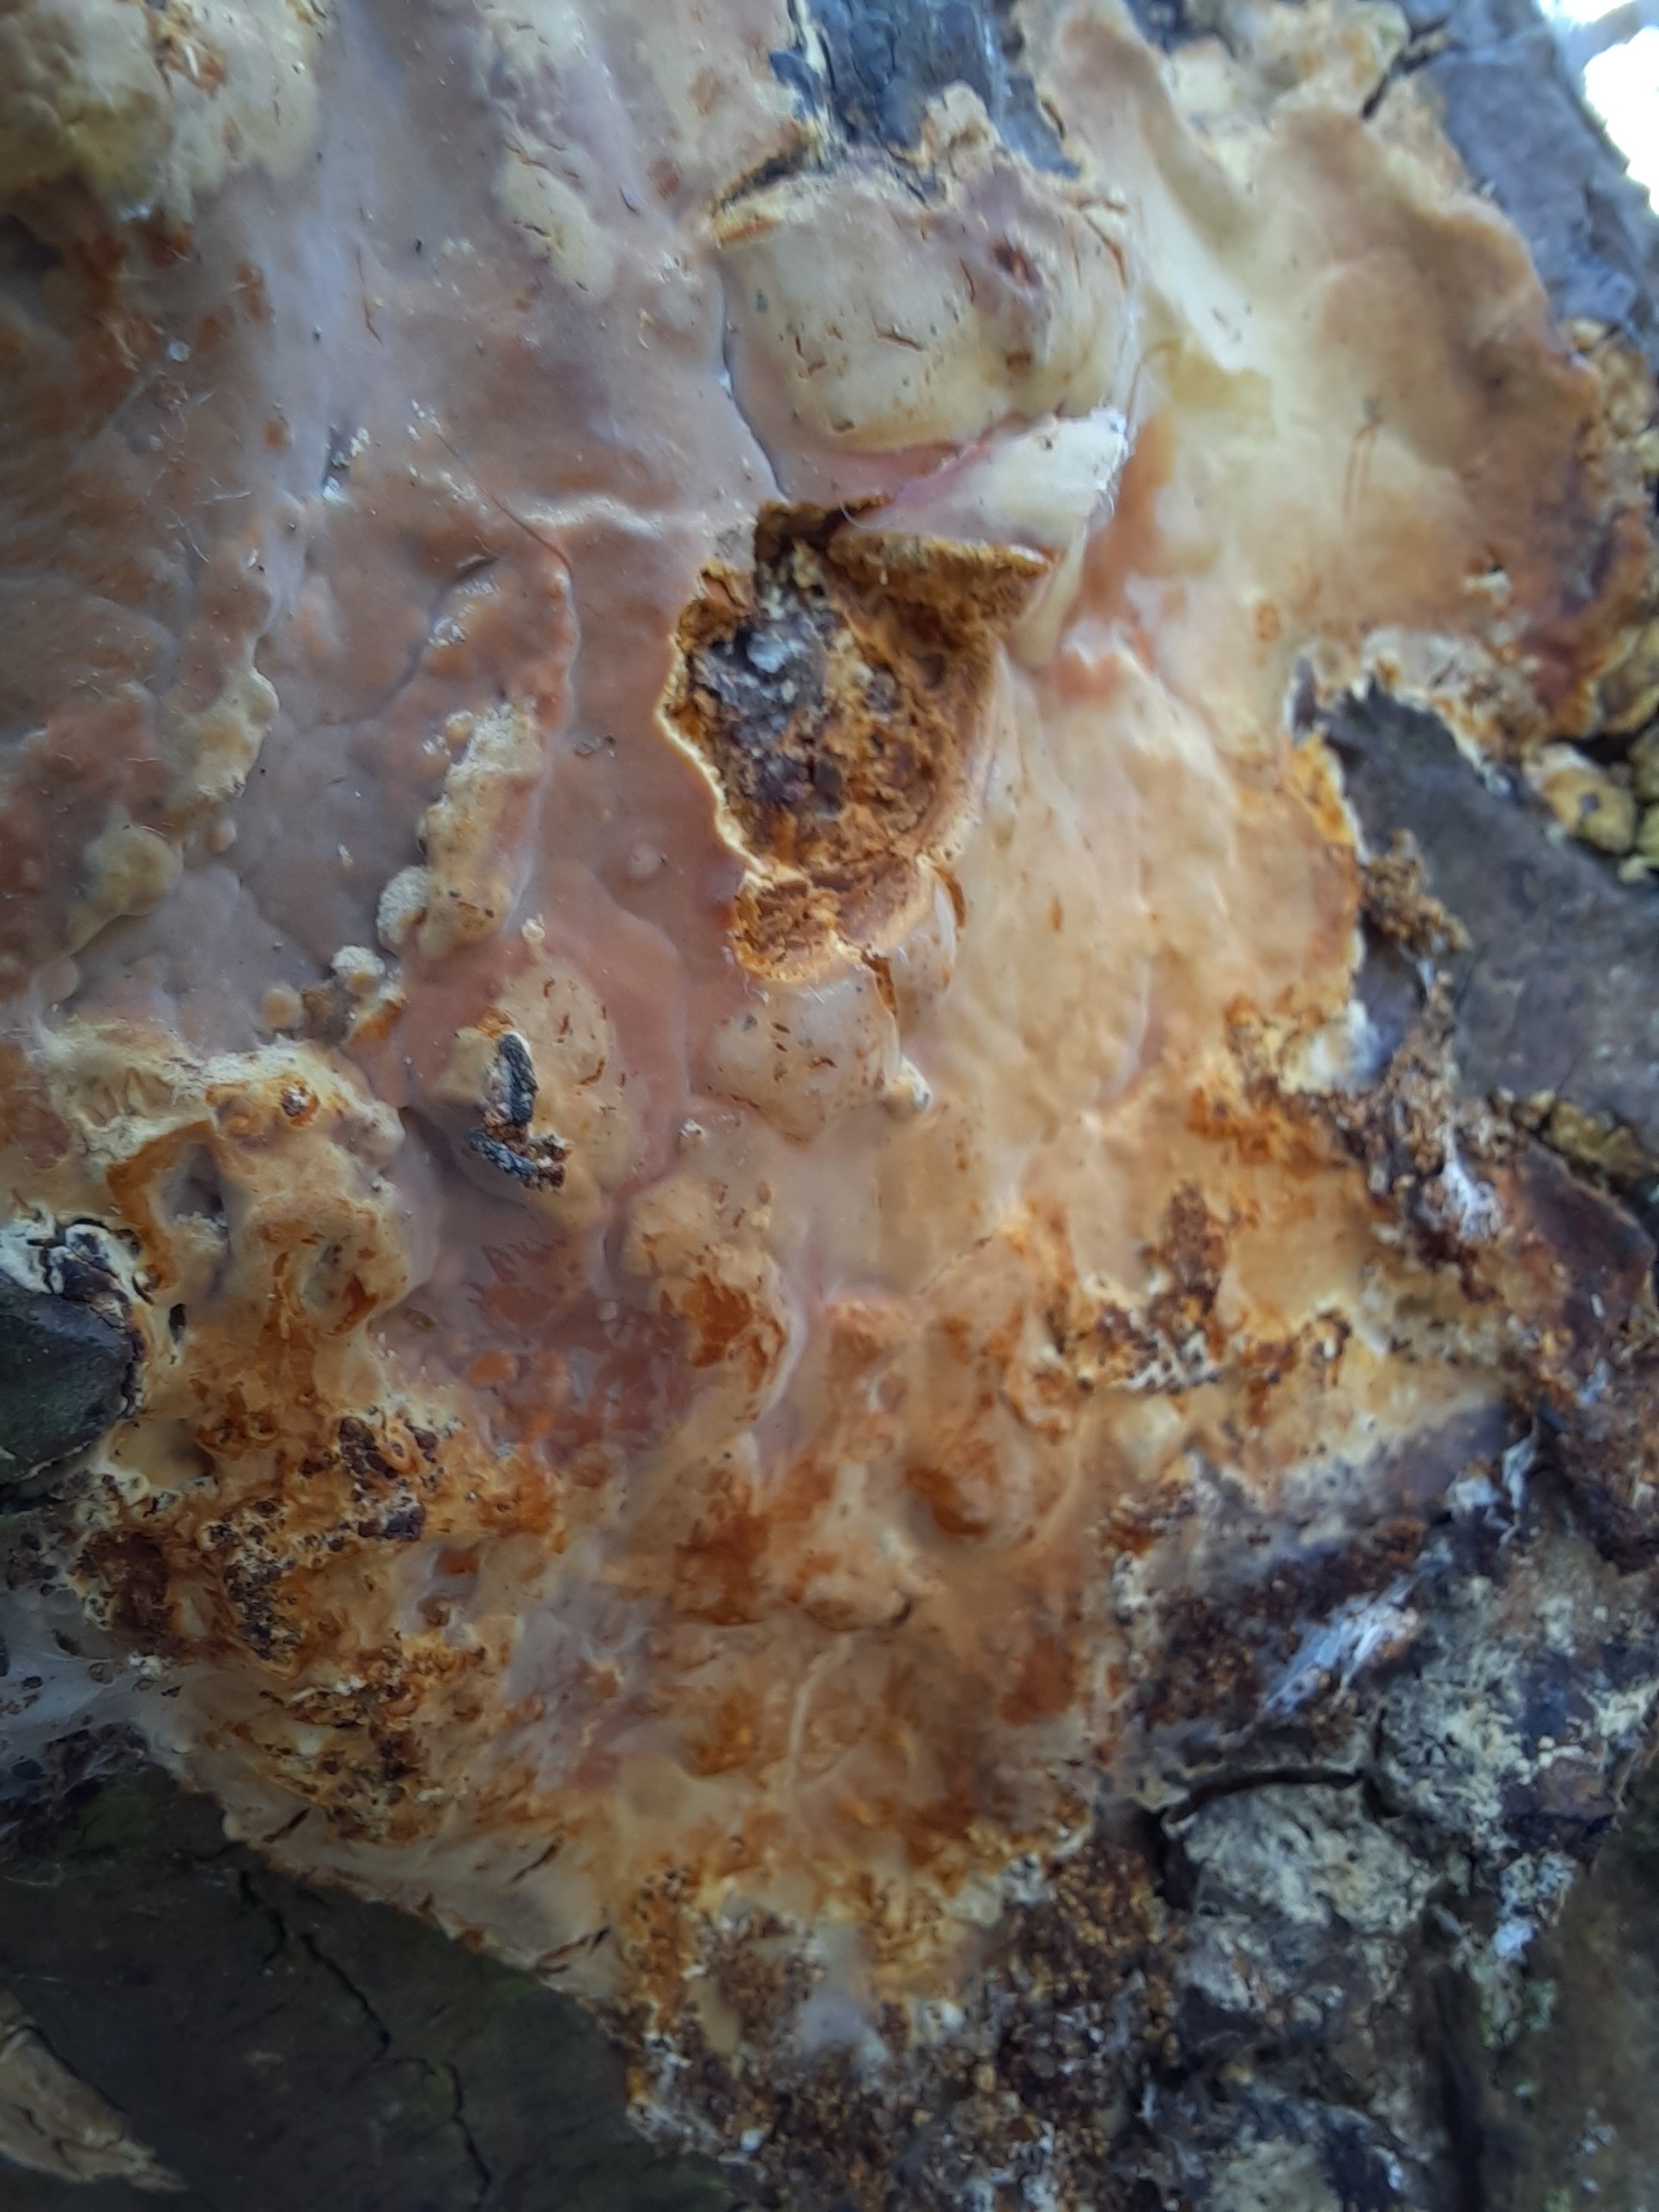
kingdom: Fungi
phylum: Basidiomycota
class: Agaricomycetes
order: Russulales
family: Peniophoraceae
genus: Scytinostroma
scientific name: Scytinostroma hemidichophyticum
